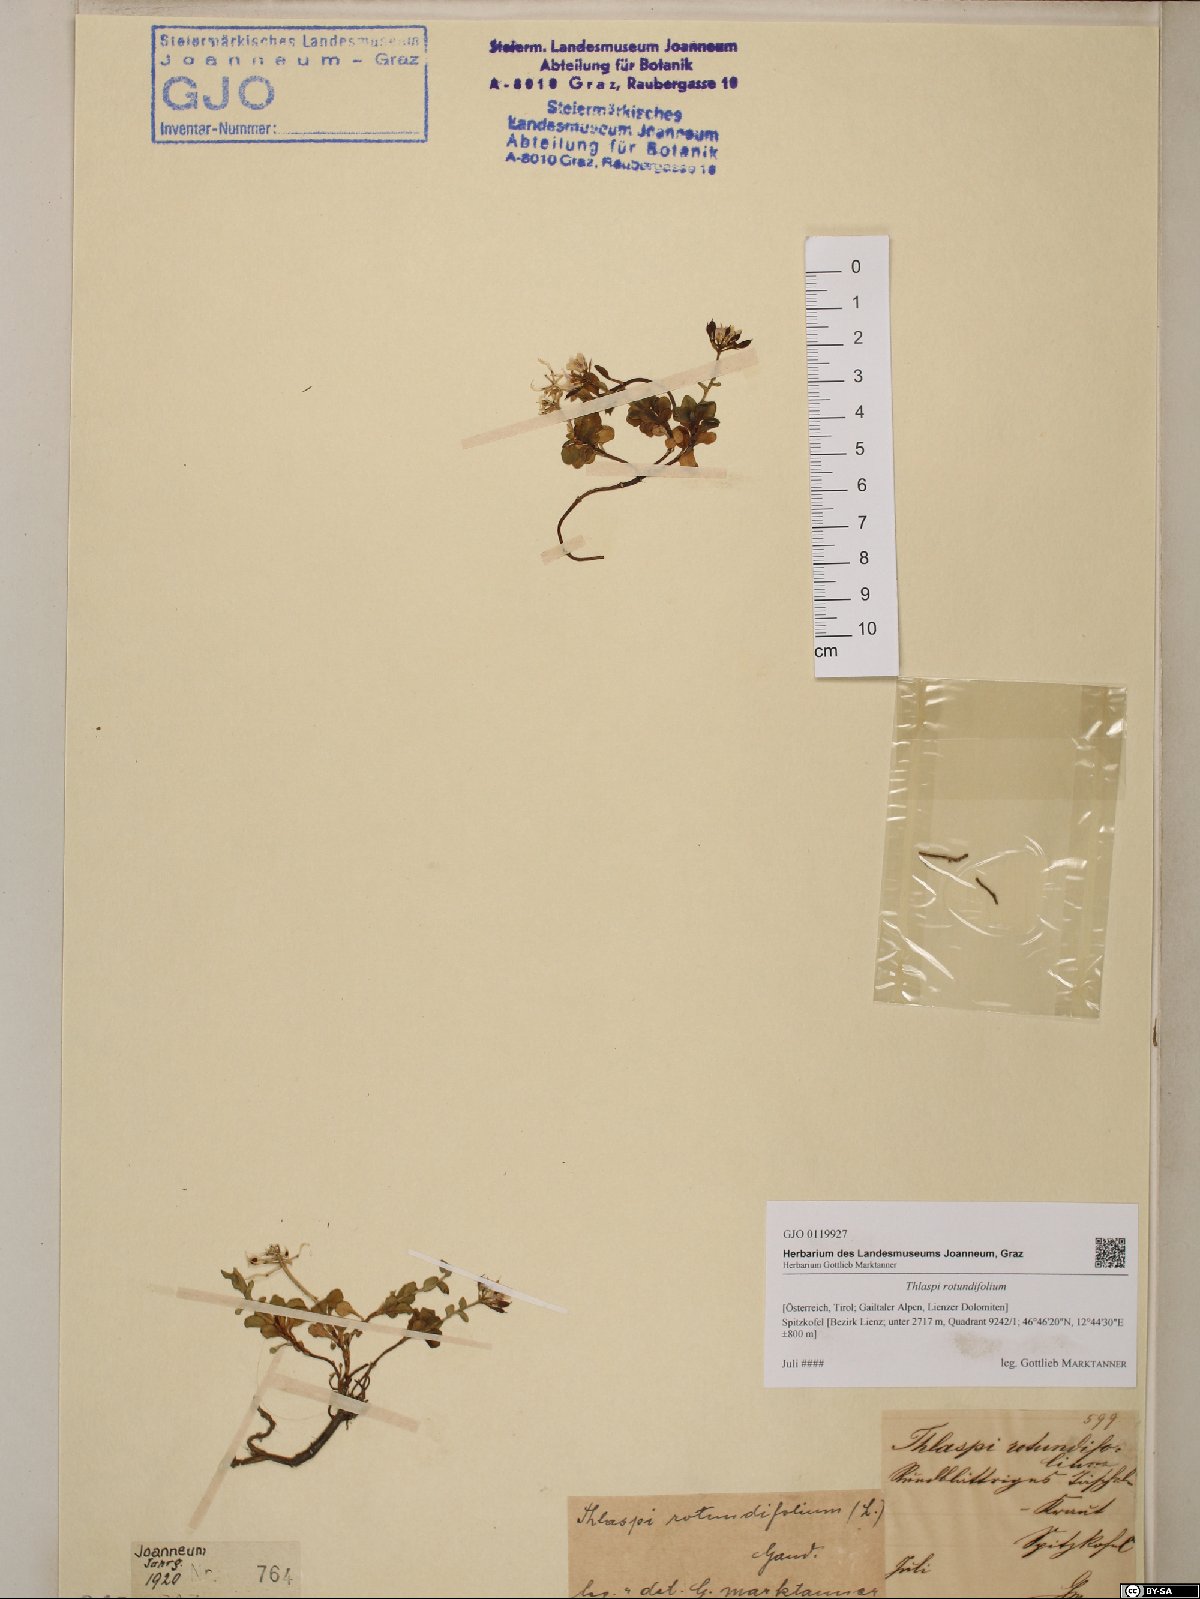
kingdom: Plantae
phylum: Tracheophyta
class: Magnoliopsida
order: Brassicales
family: Brassicaceae
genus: Noccaea
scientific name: Noccaea rotundifolia
